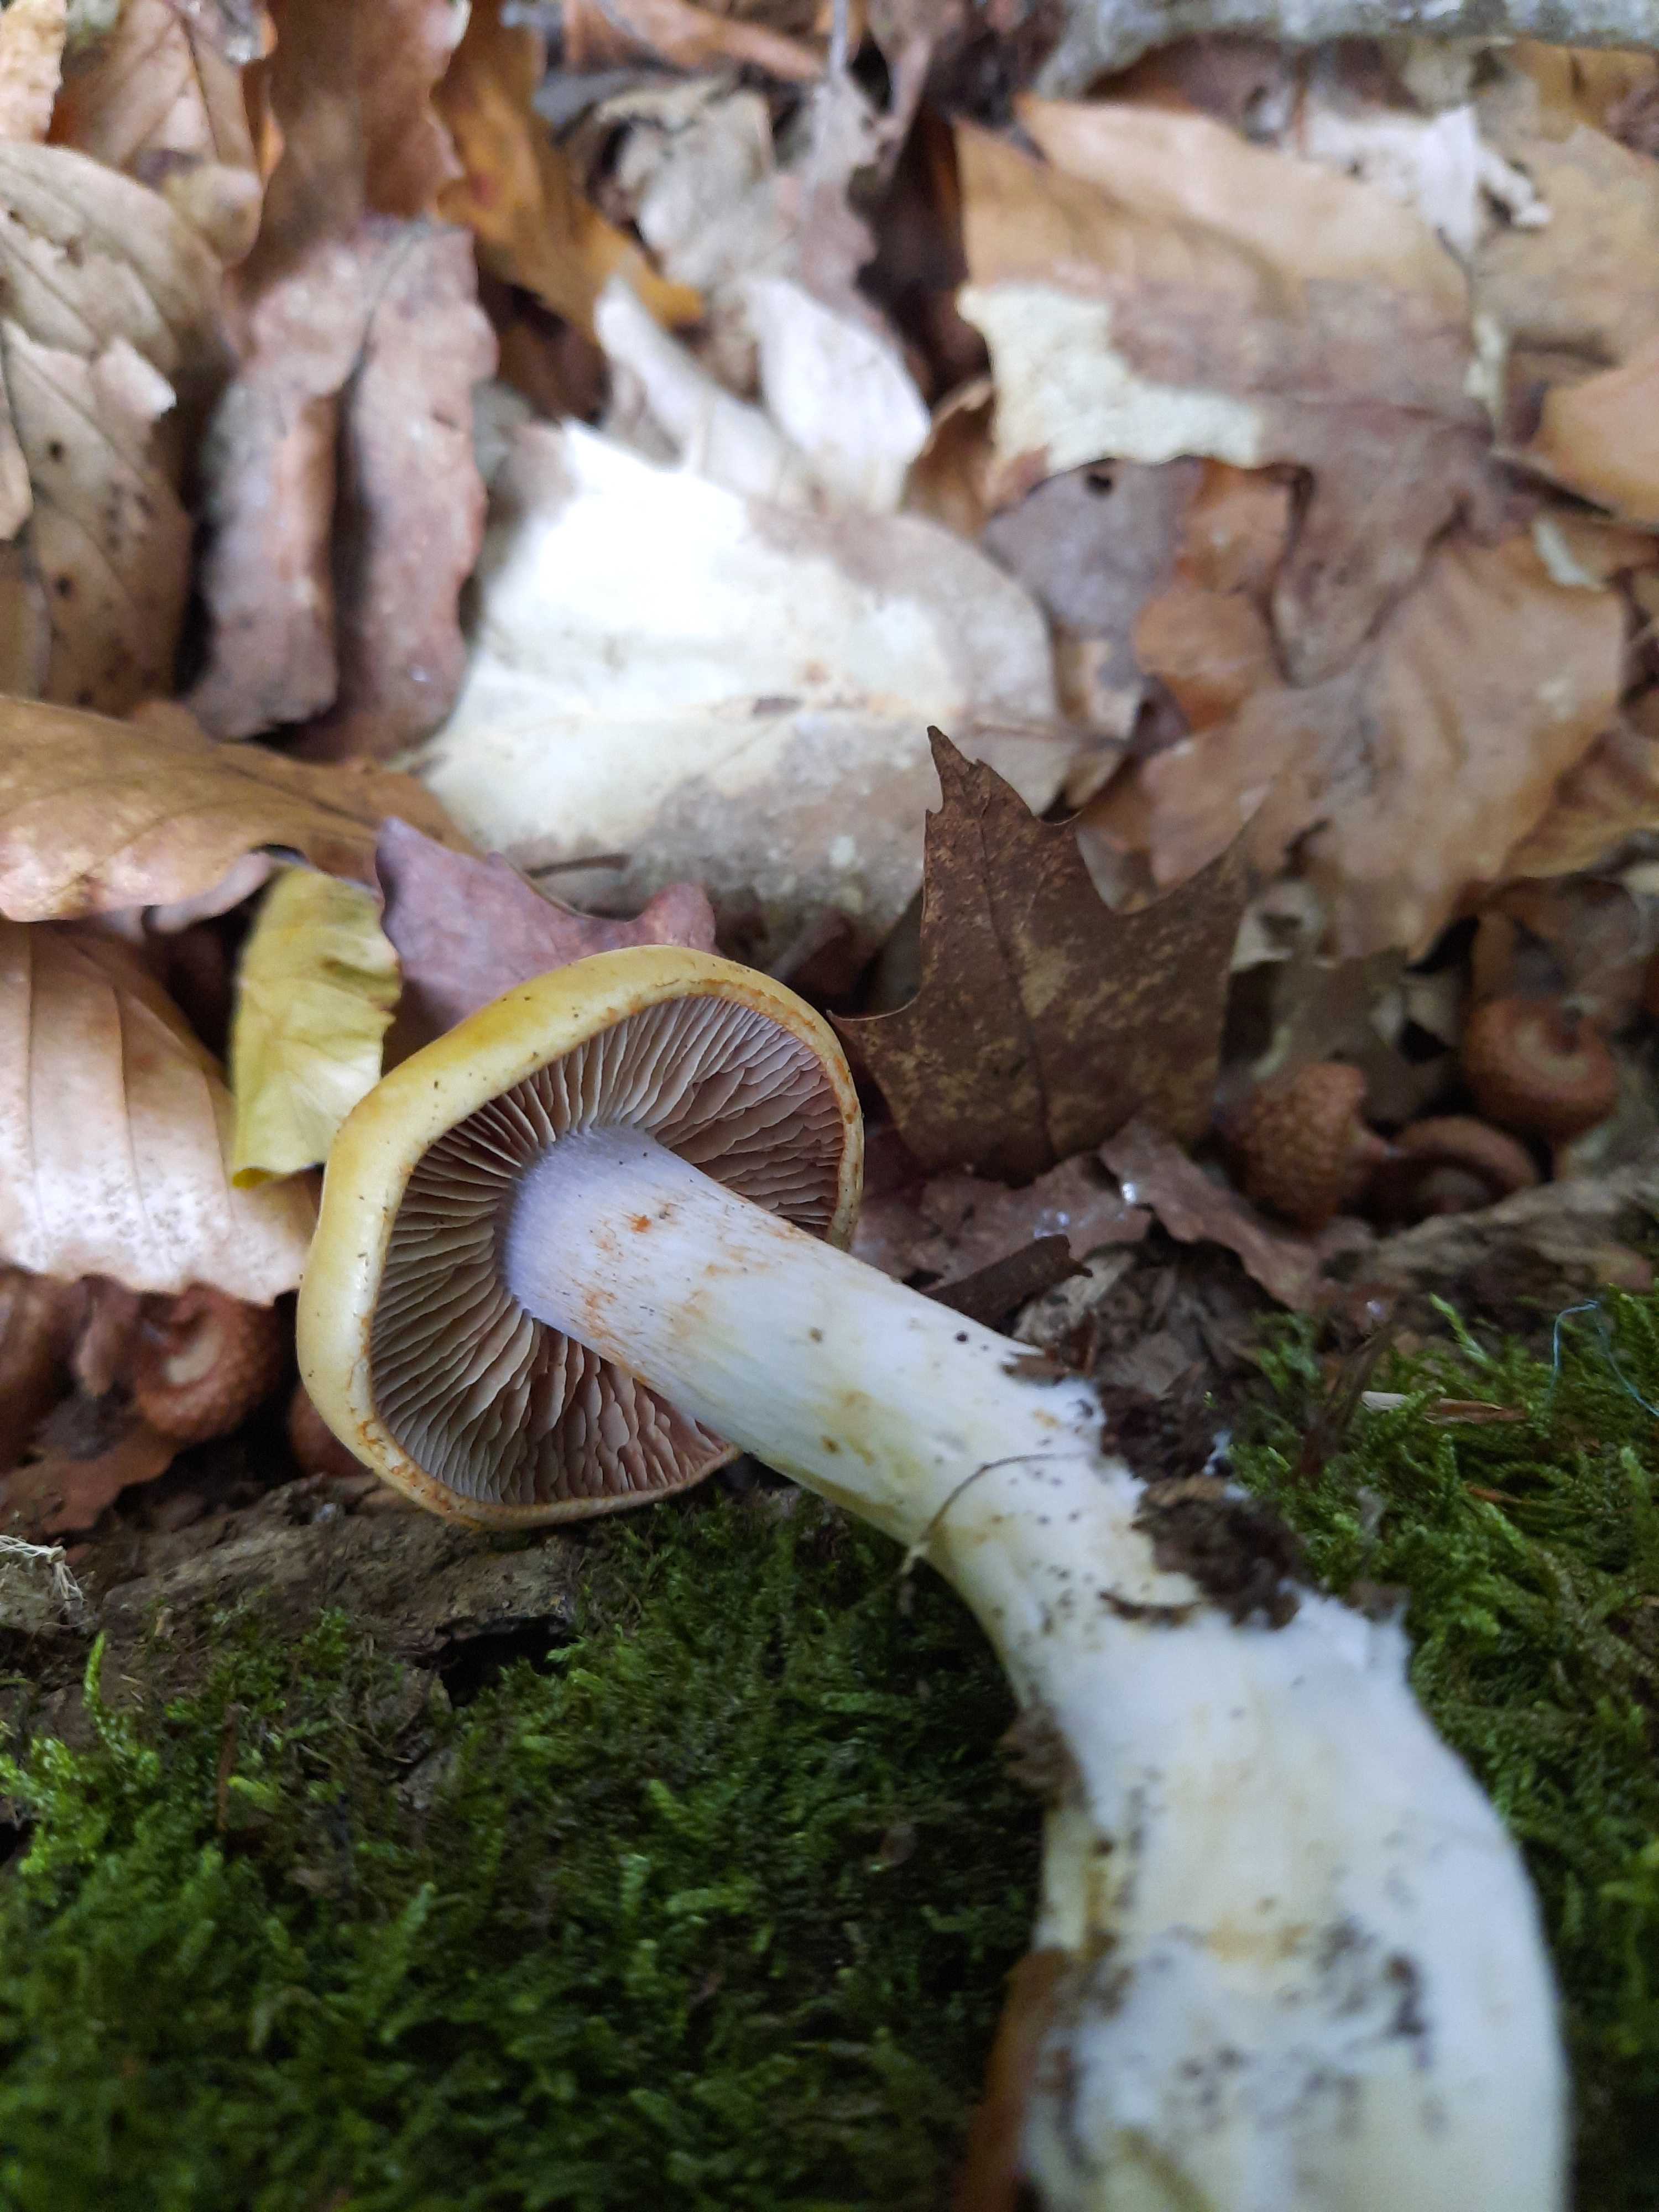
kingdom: Fungi
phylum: Basidiomycota
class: Agaricomycetes
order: Agaricales
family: Cortinariaceae
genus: Cortinarius
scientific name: Cortinarius delibutus
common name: gul slørhat
